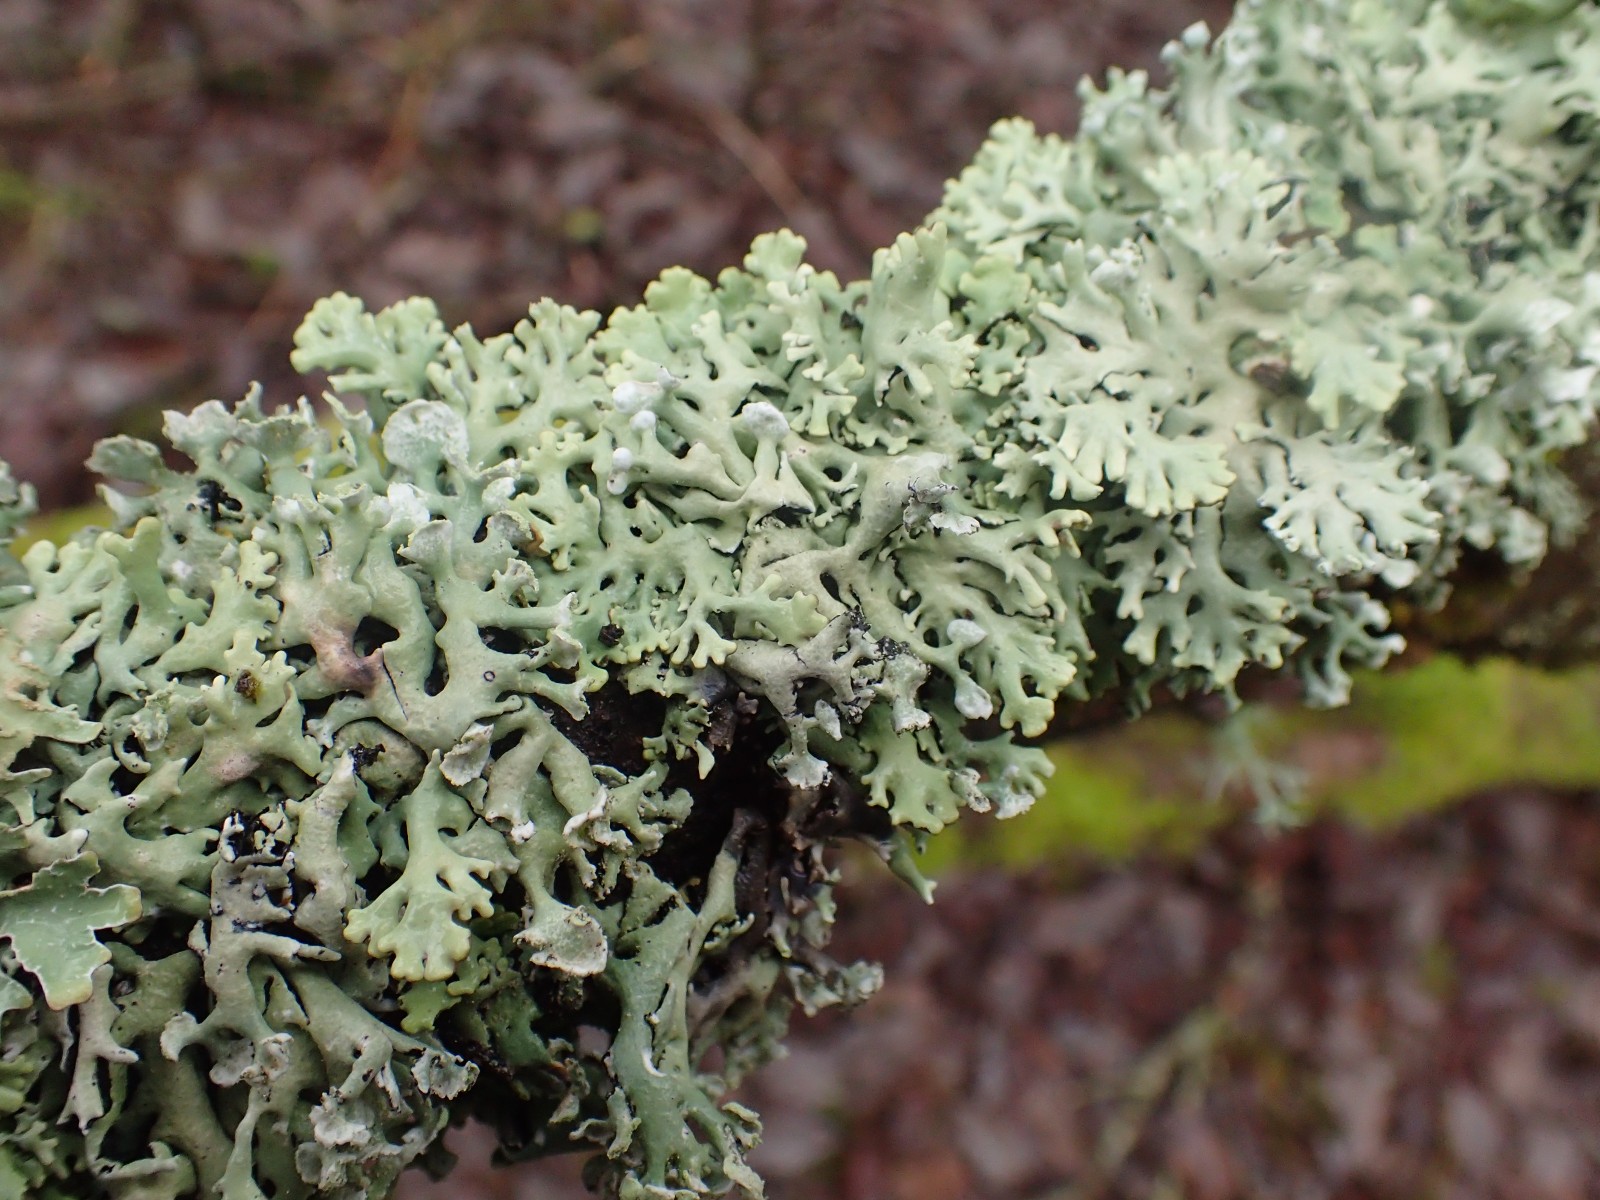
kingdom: Fungi
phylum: Ascomycota
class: Lecanoromycetes
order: Lecanorales
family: Parmeliaceae
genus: Hypogymnia
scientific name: Hypogymnia physodes
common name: almindelig kvistlav
